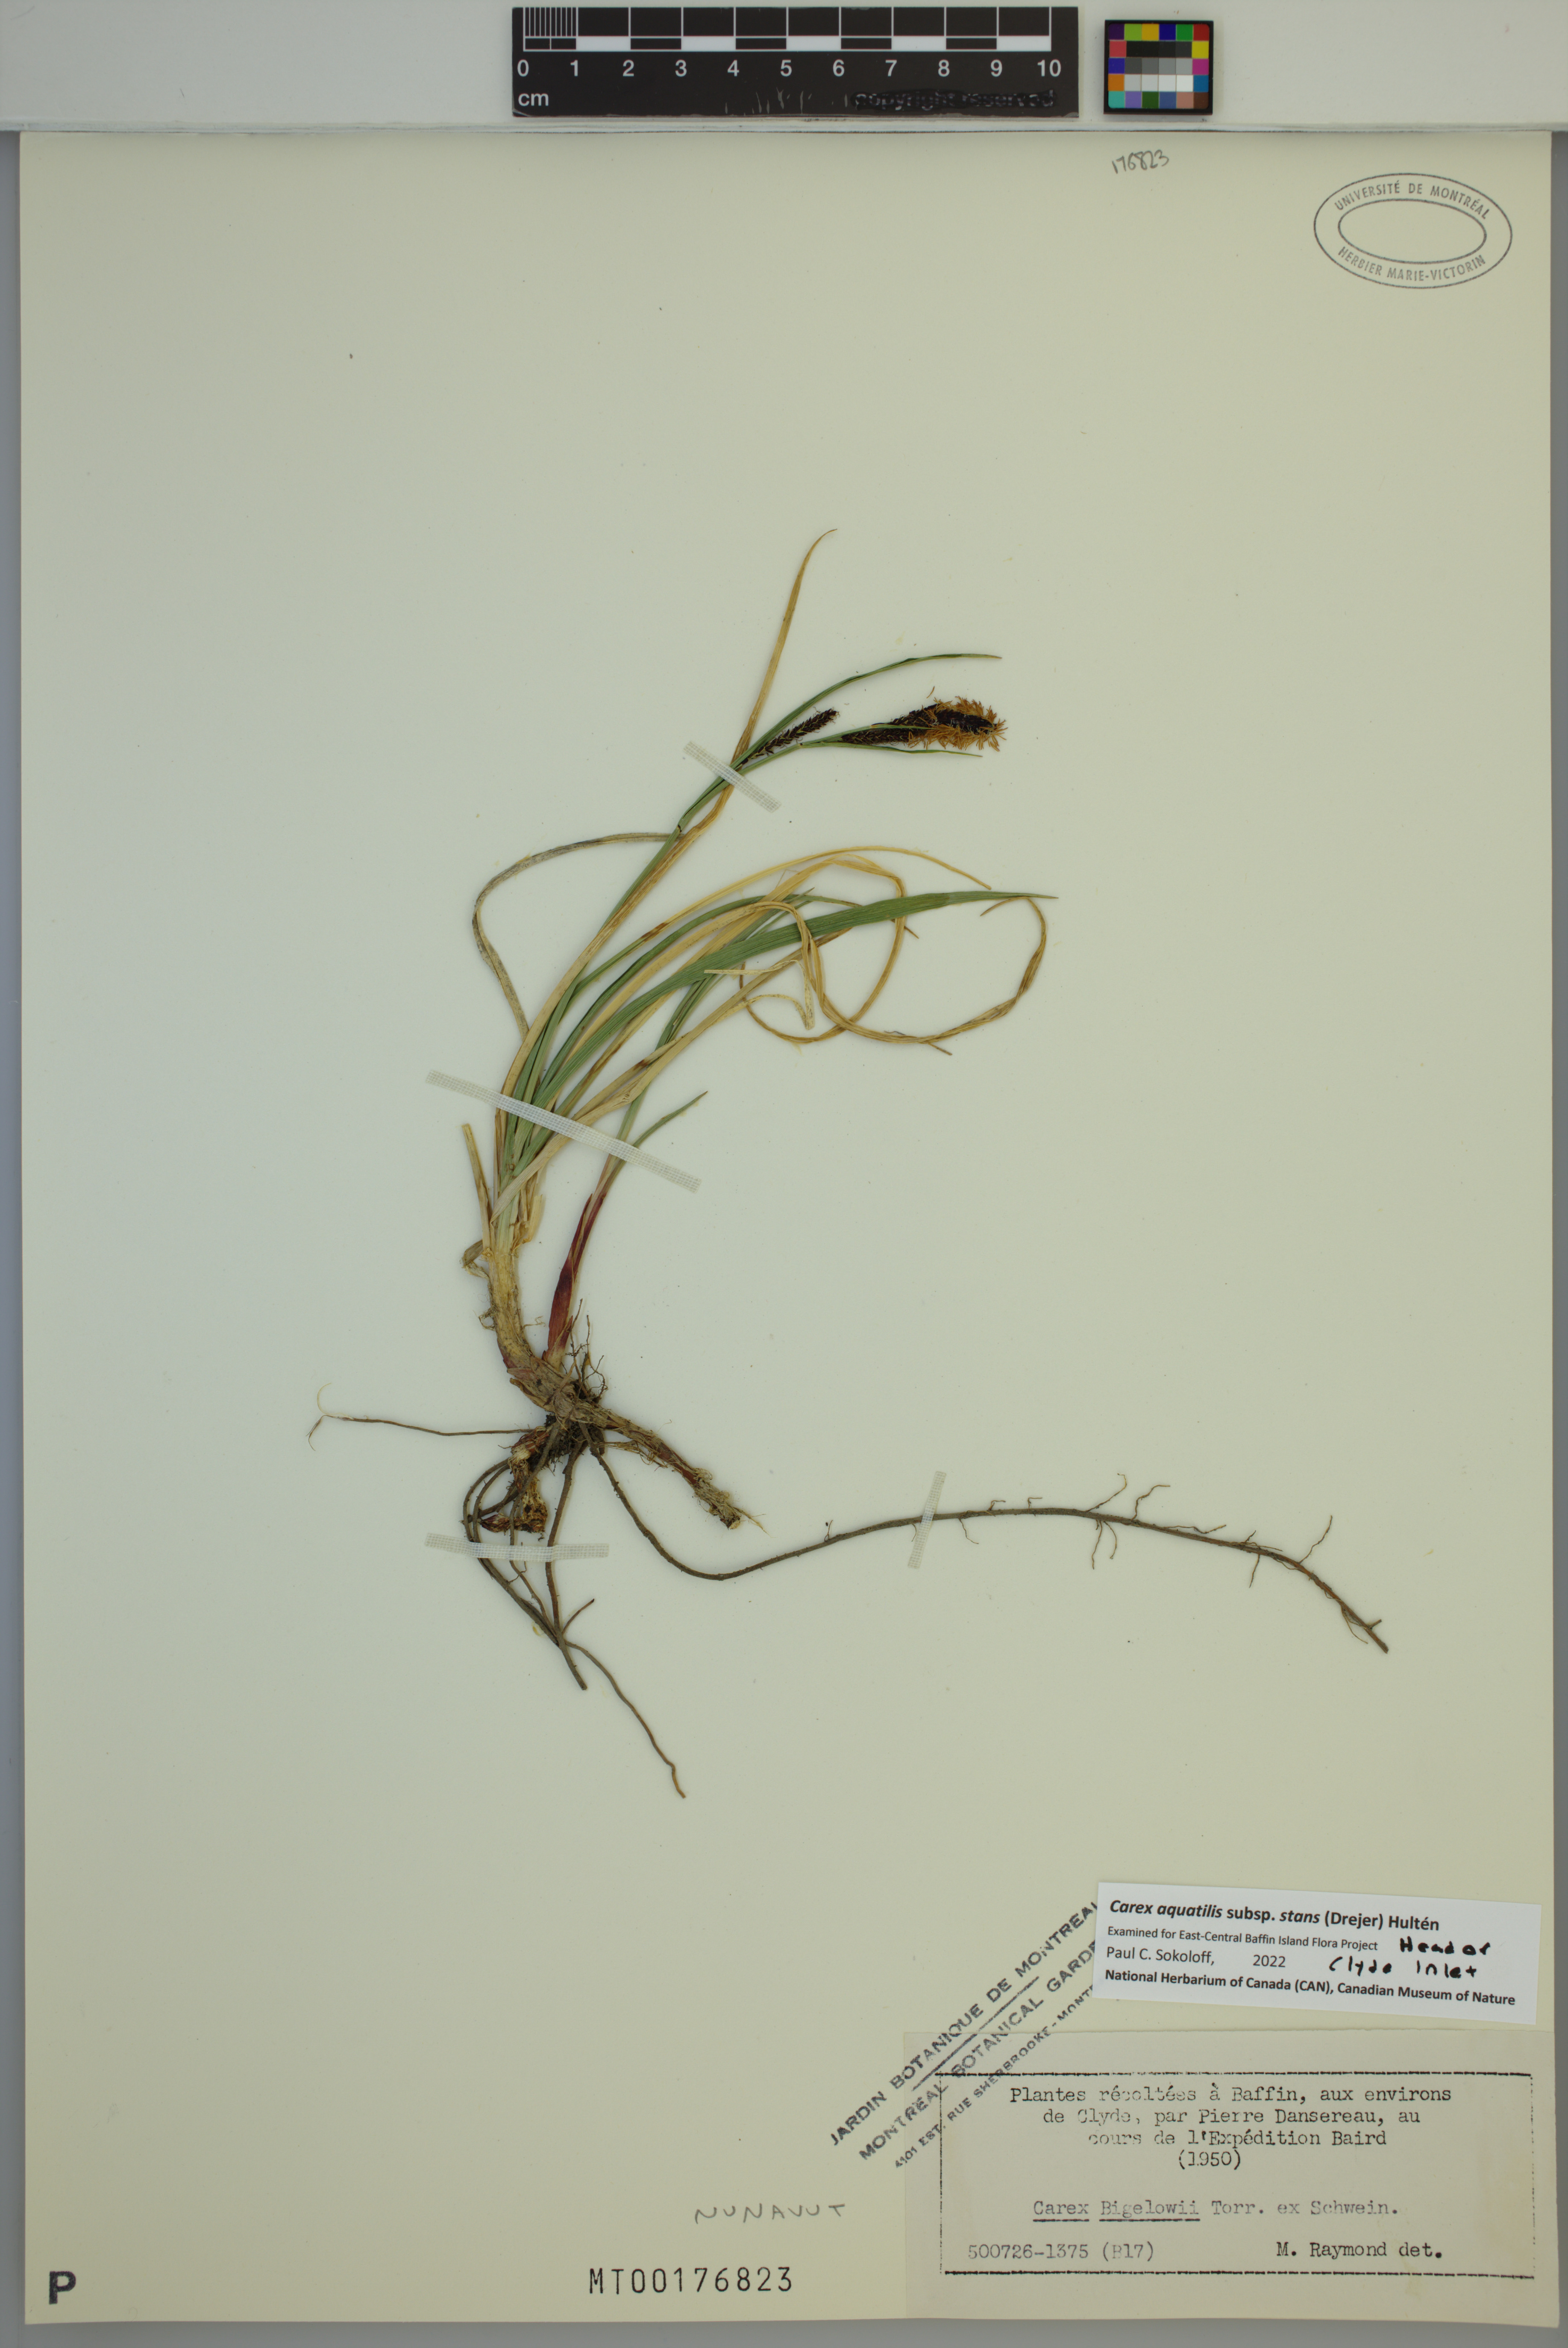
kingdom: Plantae
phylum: Tracheophyta
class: Liliopsida
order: Poales
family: Cyperaceae
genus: Carex
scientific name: Carex aquatilis
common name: Water sedge
